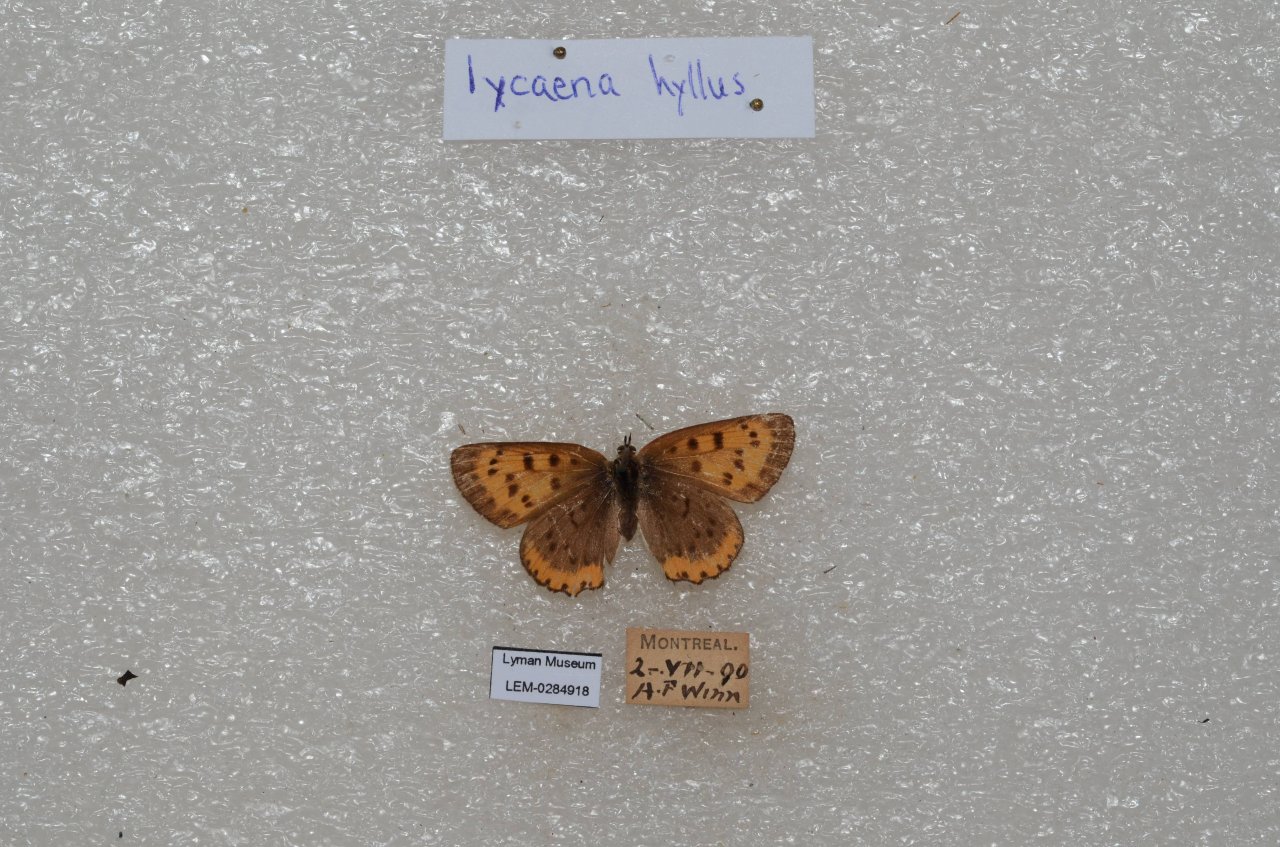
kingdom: Animalia
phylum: Arthropoda
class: Insecta
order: Lepidoptera
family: Sesiidae
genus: Sesia
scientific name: Sesia Lycaena hyllus
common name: Bronze Copper
